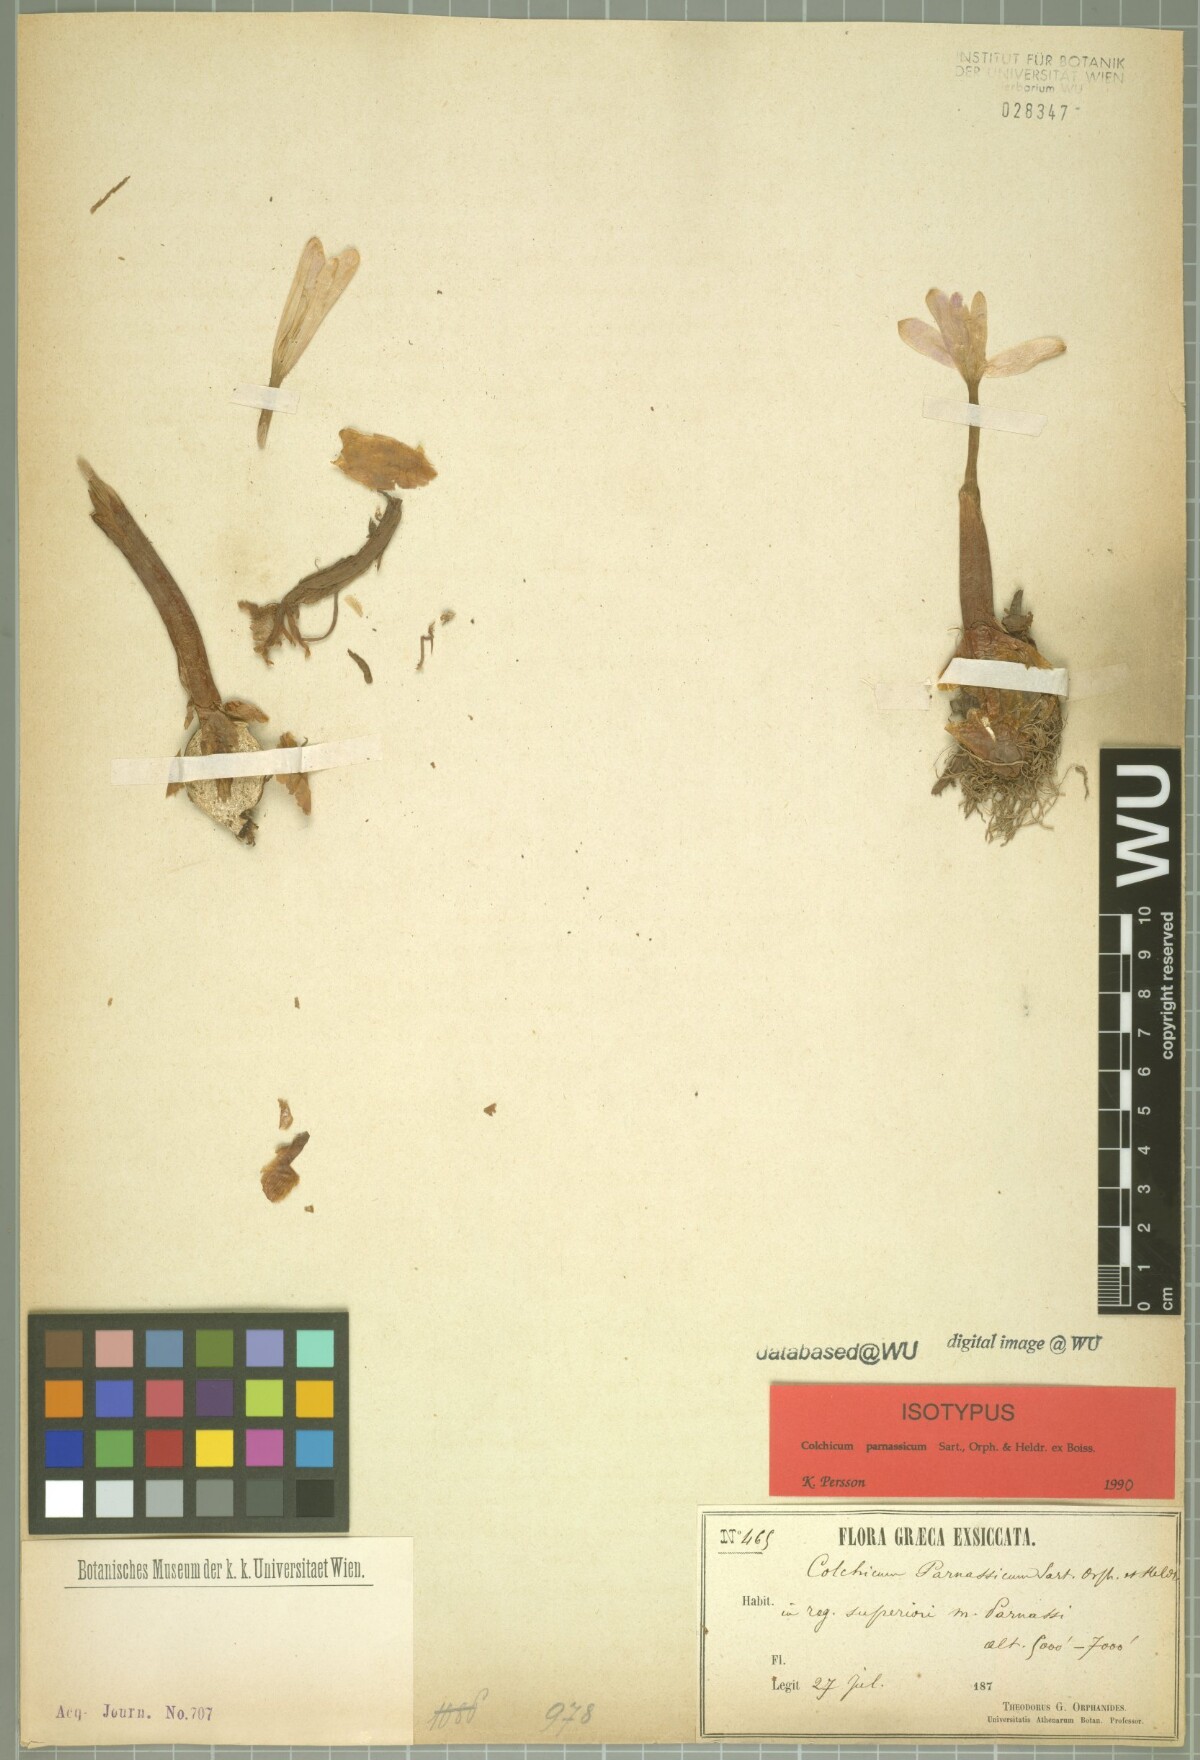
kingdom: Plantae
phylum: Tracheophyta
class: Liliopsida
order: Liliales
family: Colchicaceae
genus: Colchicum
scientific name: Colchicum parnassicum
